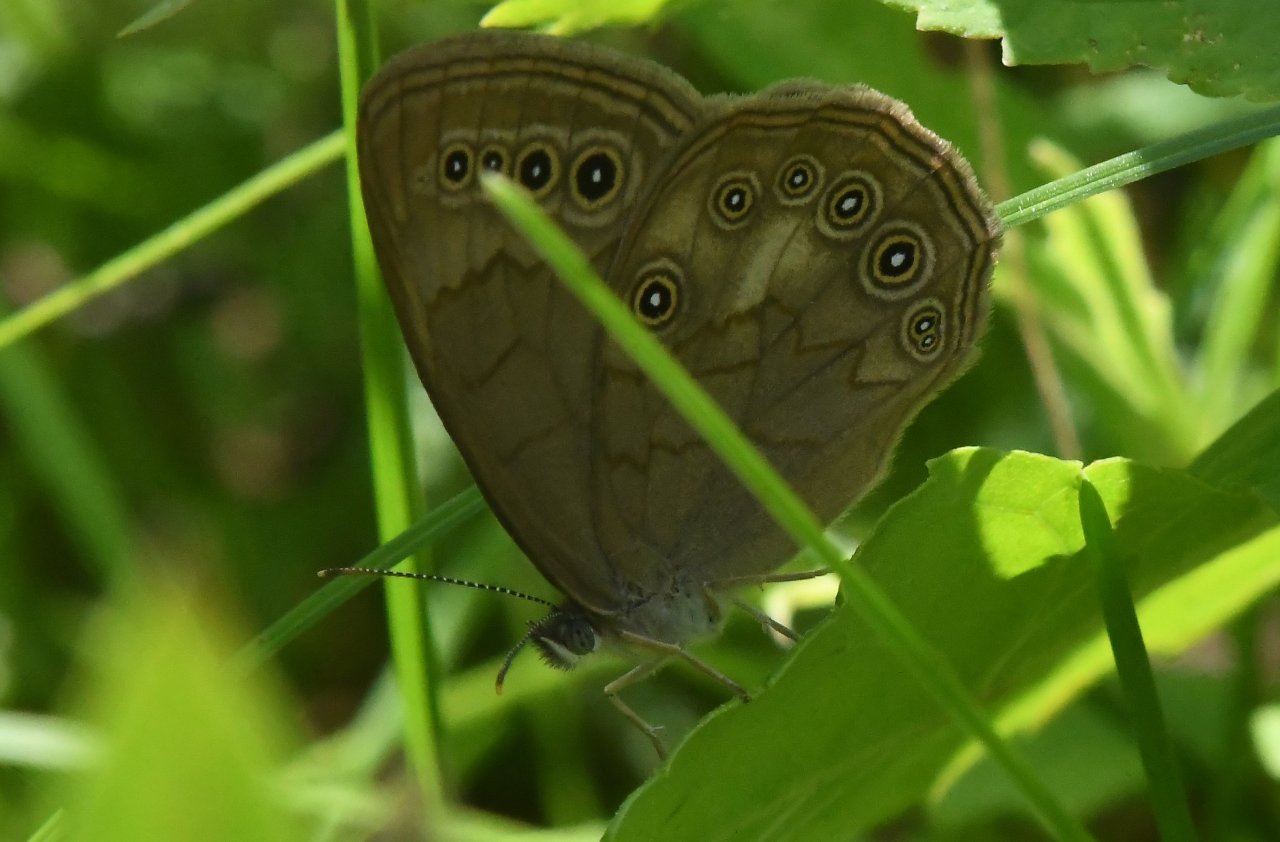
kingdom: Animalia
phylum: Arthropoda
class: Insecta
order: Lepidoptera
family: Nymphalidae
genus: Lethe
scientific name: Lethe eurydice
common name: Eyed Brown
